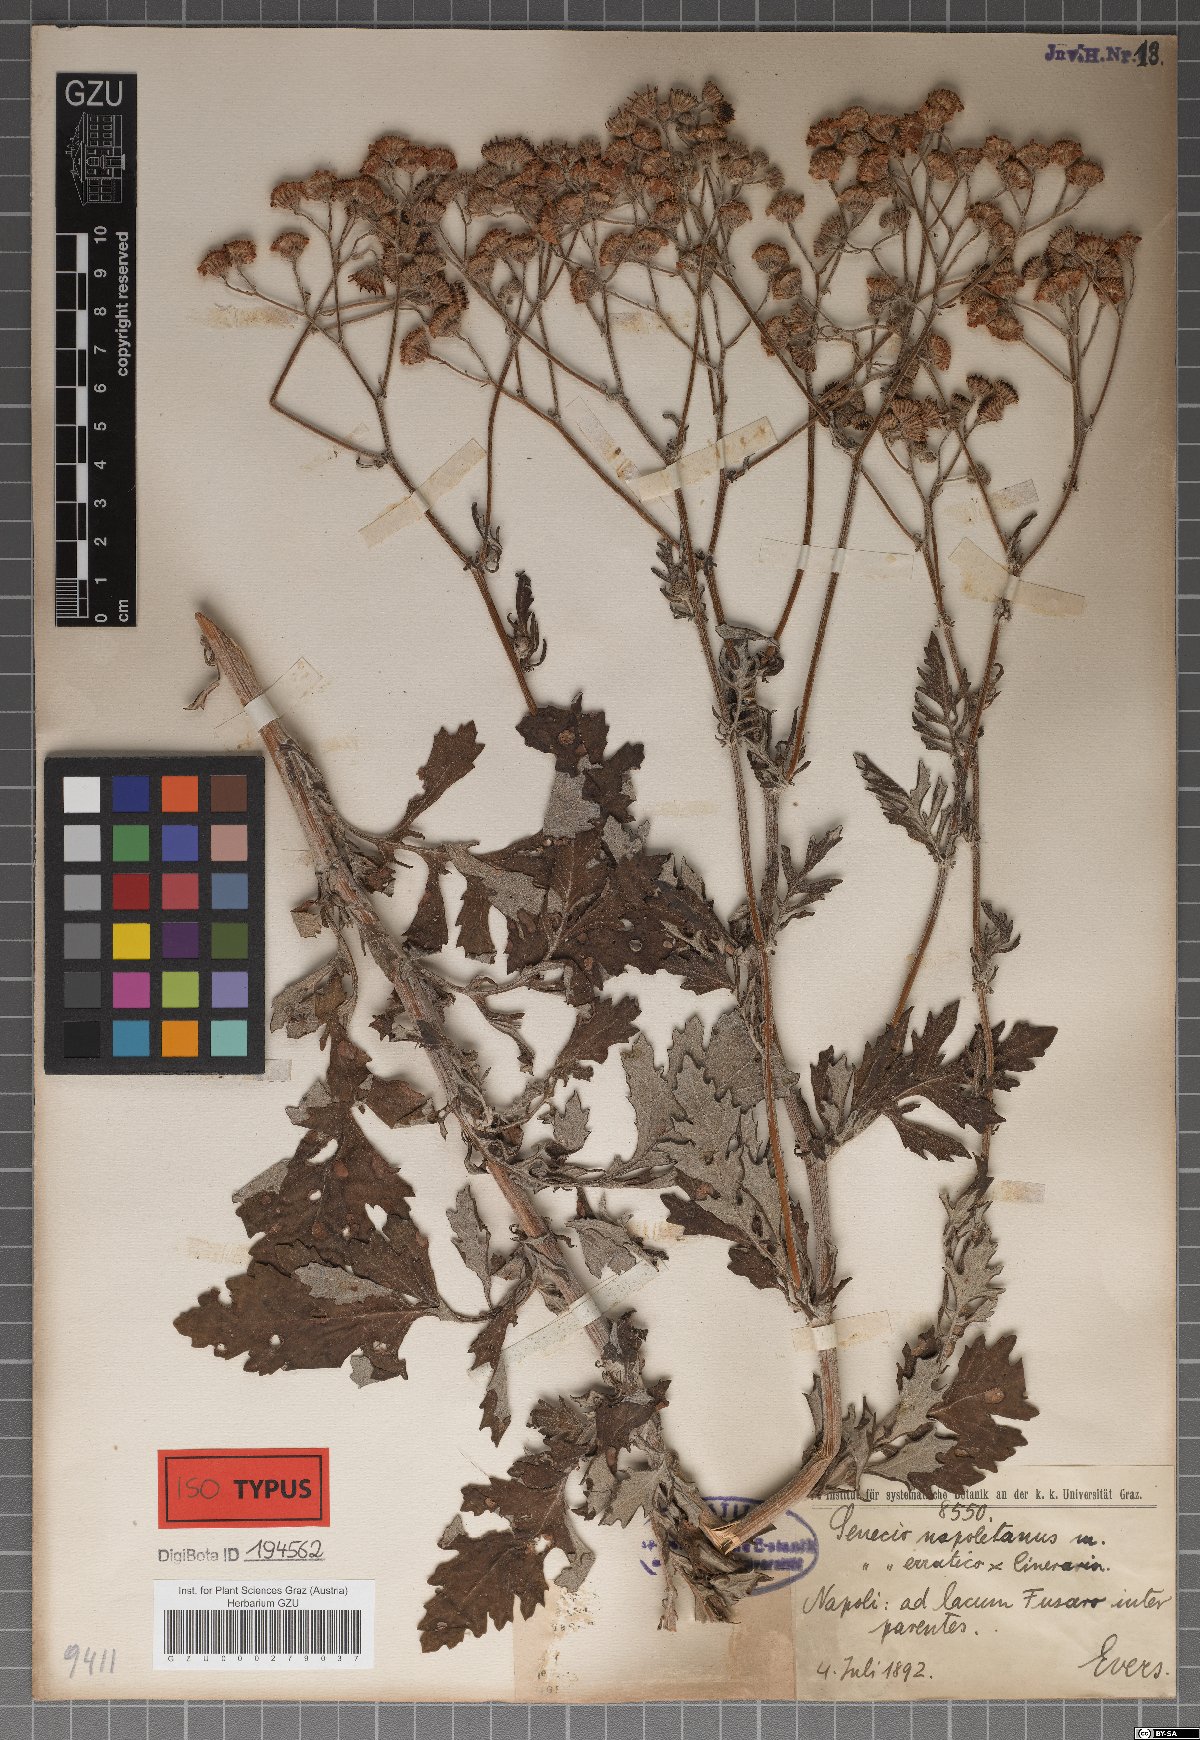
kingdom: Plantae
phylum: Tracheophyta
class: Magnoliopsida
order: Asterales
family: Asteraceae
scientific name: Asteraceae
